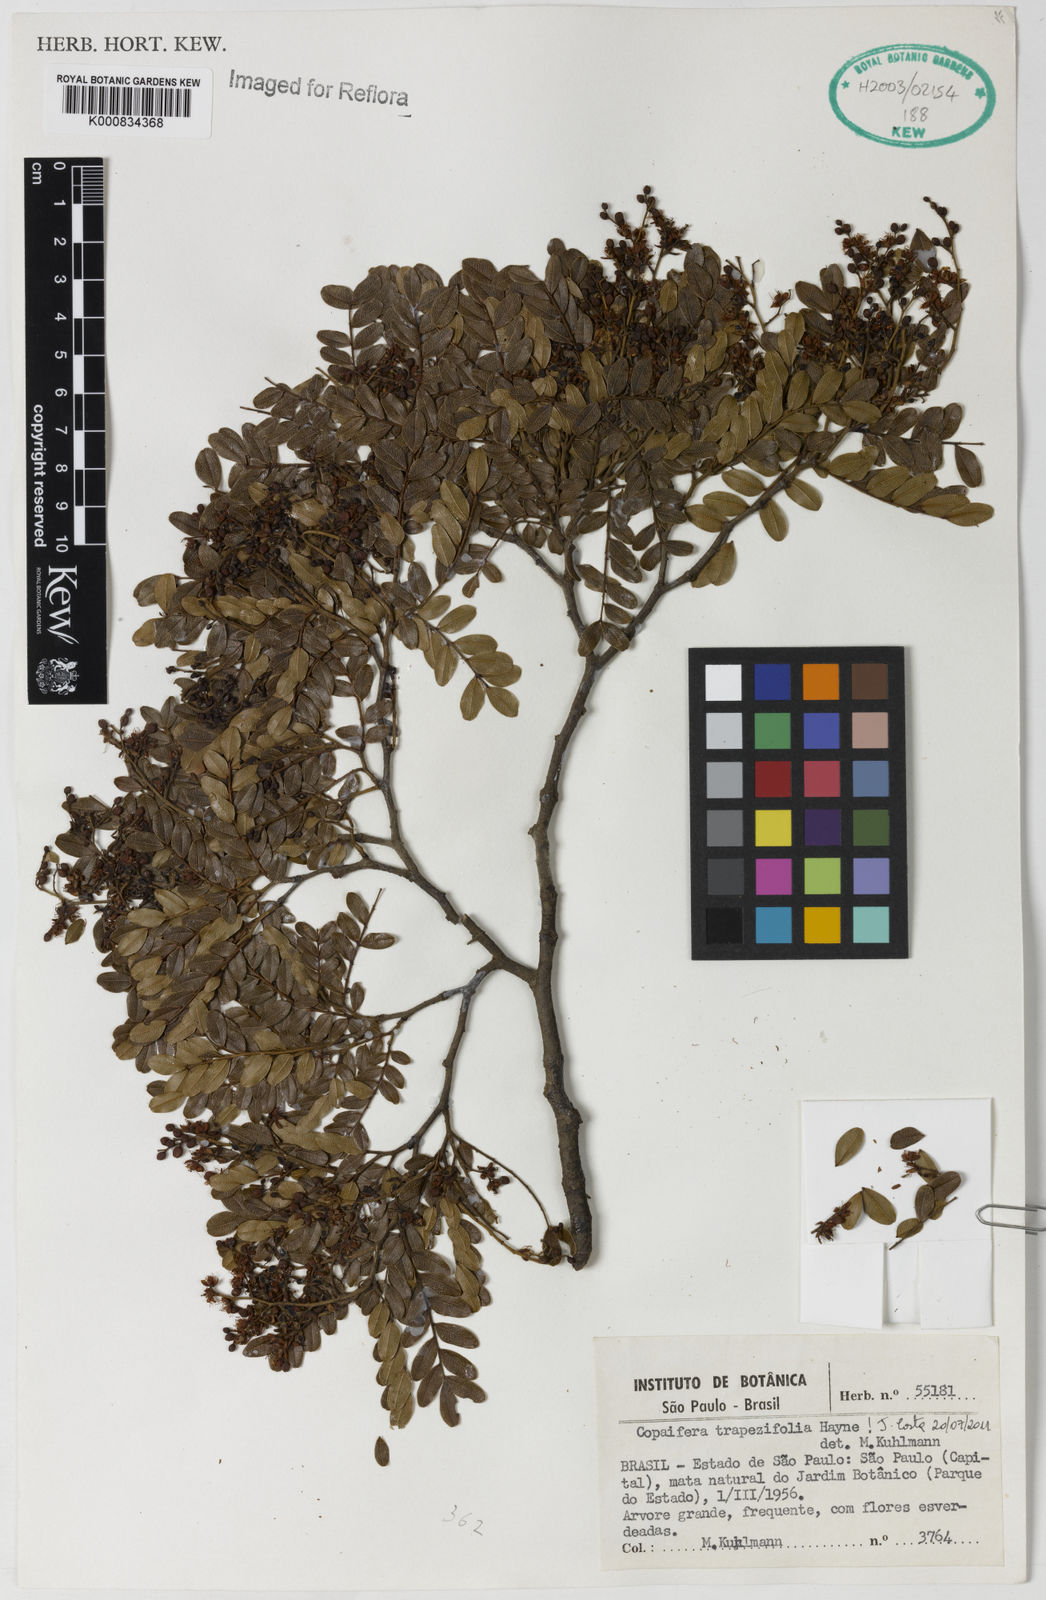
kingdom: Plantae
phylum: Tracheophyta
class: Magnoliopsida
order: Fabales
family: Fabaceae
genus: Copaifera
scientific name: Copaifera trapezifolia
